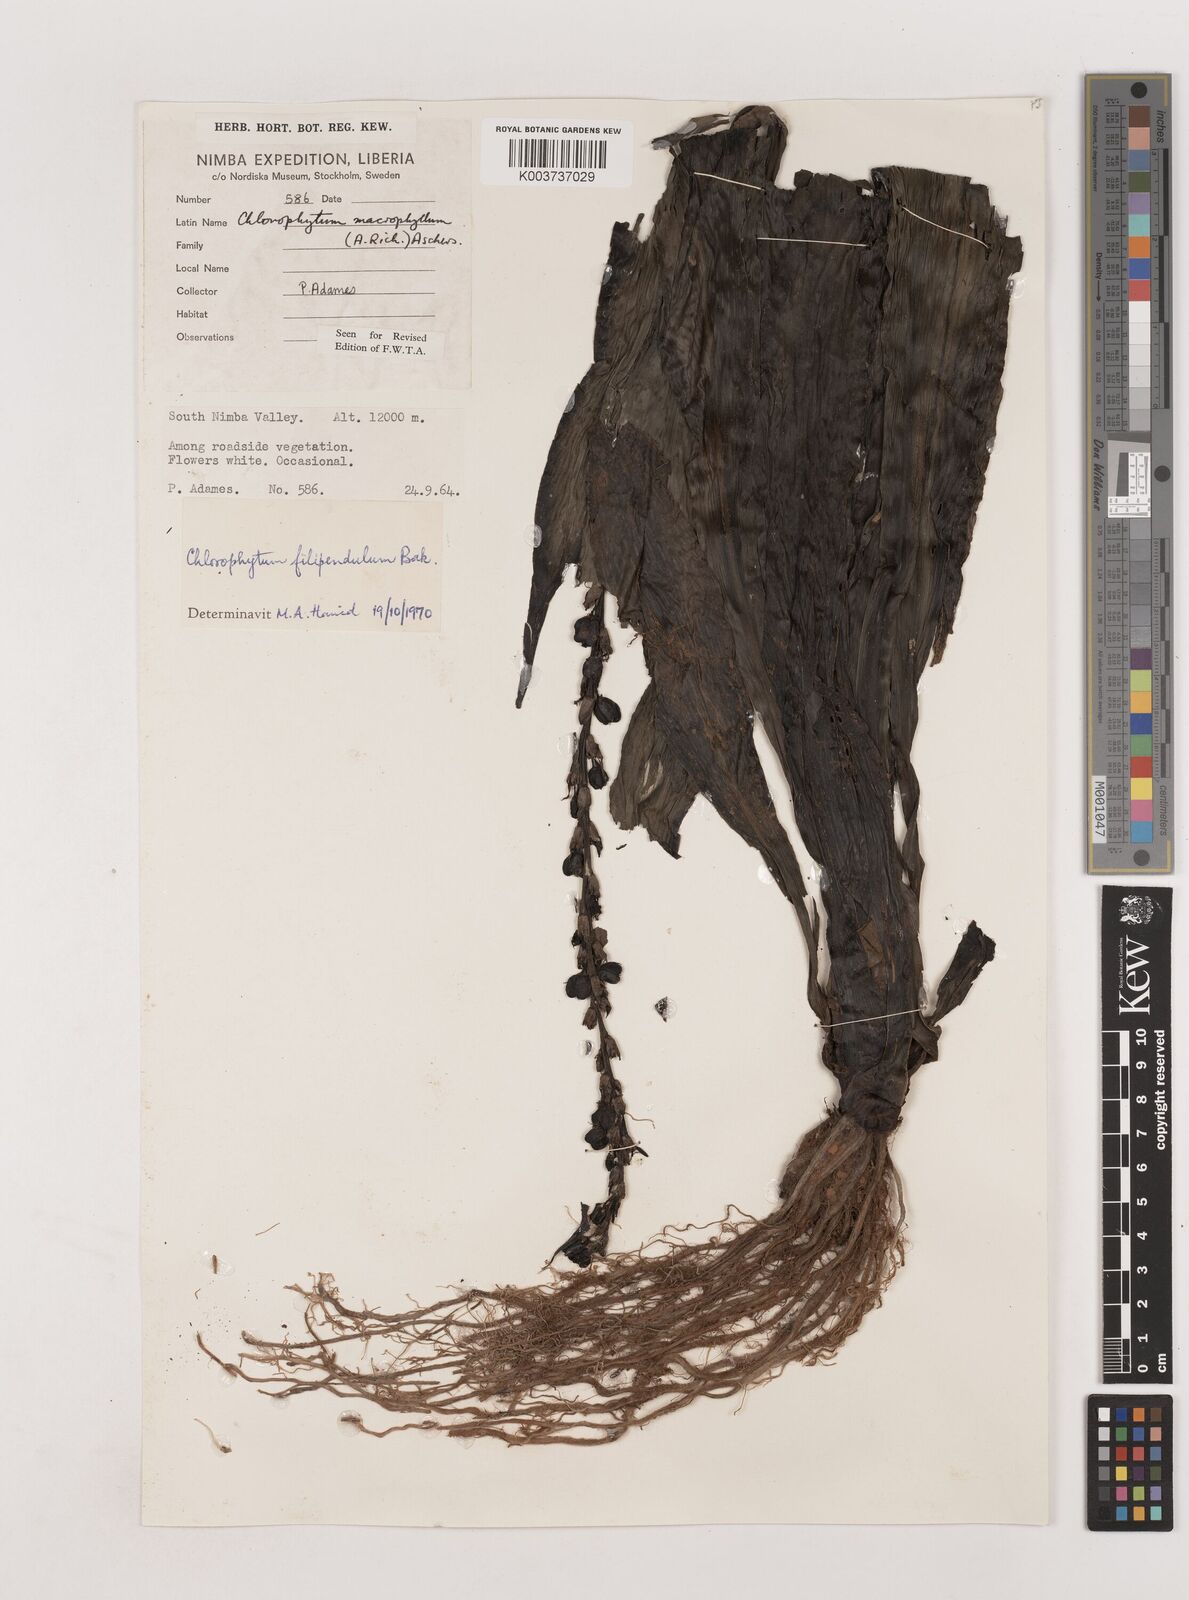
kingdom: Plantae
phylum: Tracheophyta
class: Liliopsida
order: Asparagales
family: Asparagaceae
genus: Chlorophytum
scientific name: Chlorophytum heynei
